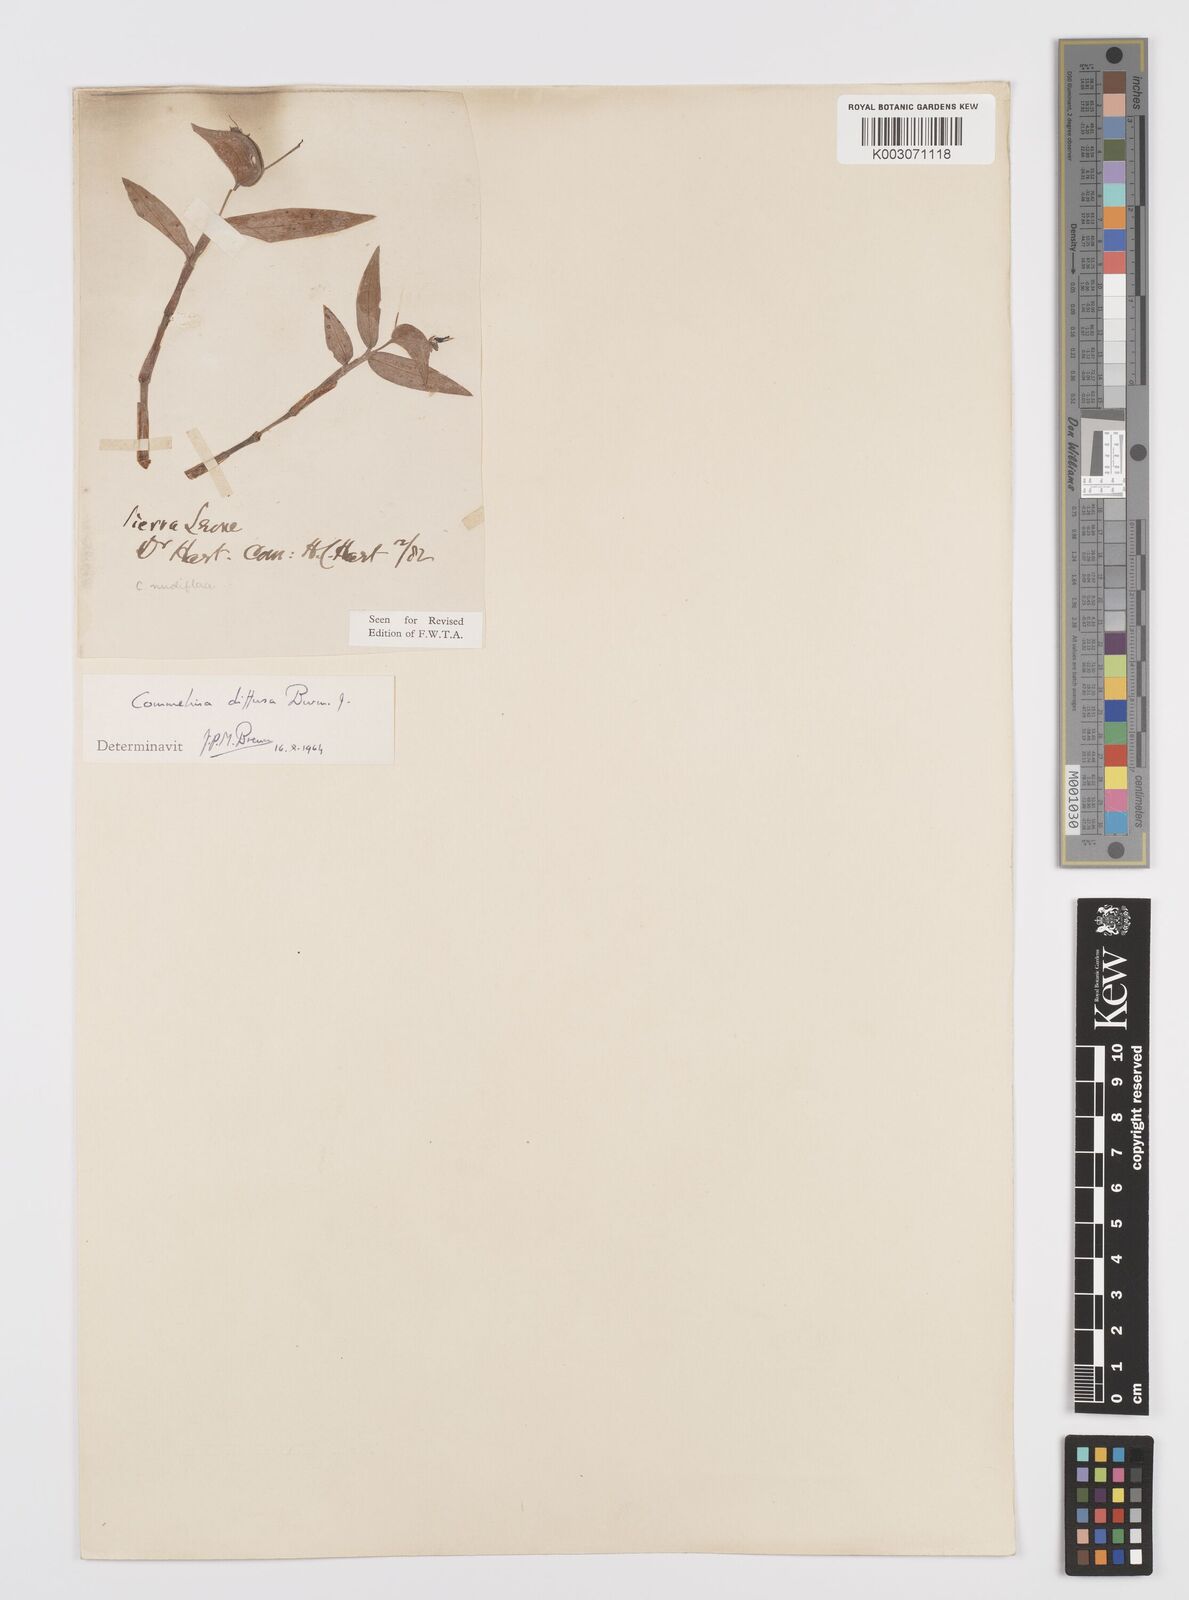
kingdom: Plantae
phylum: Tracheophyta
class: Liliopsida
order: Commelinales
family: Commelinaceae
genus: Commelina
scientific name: Commelina diffusa
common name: Climbing dayflower
